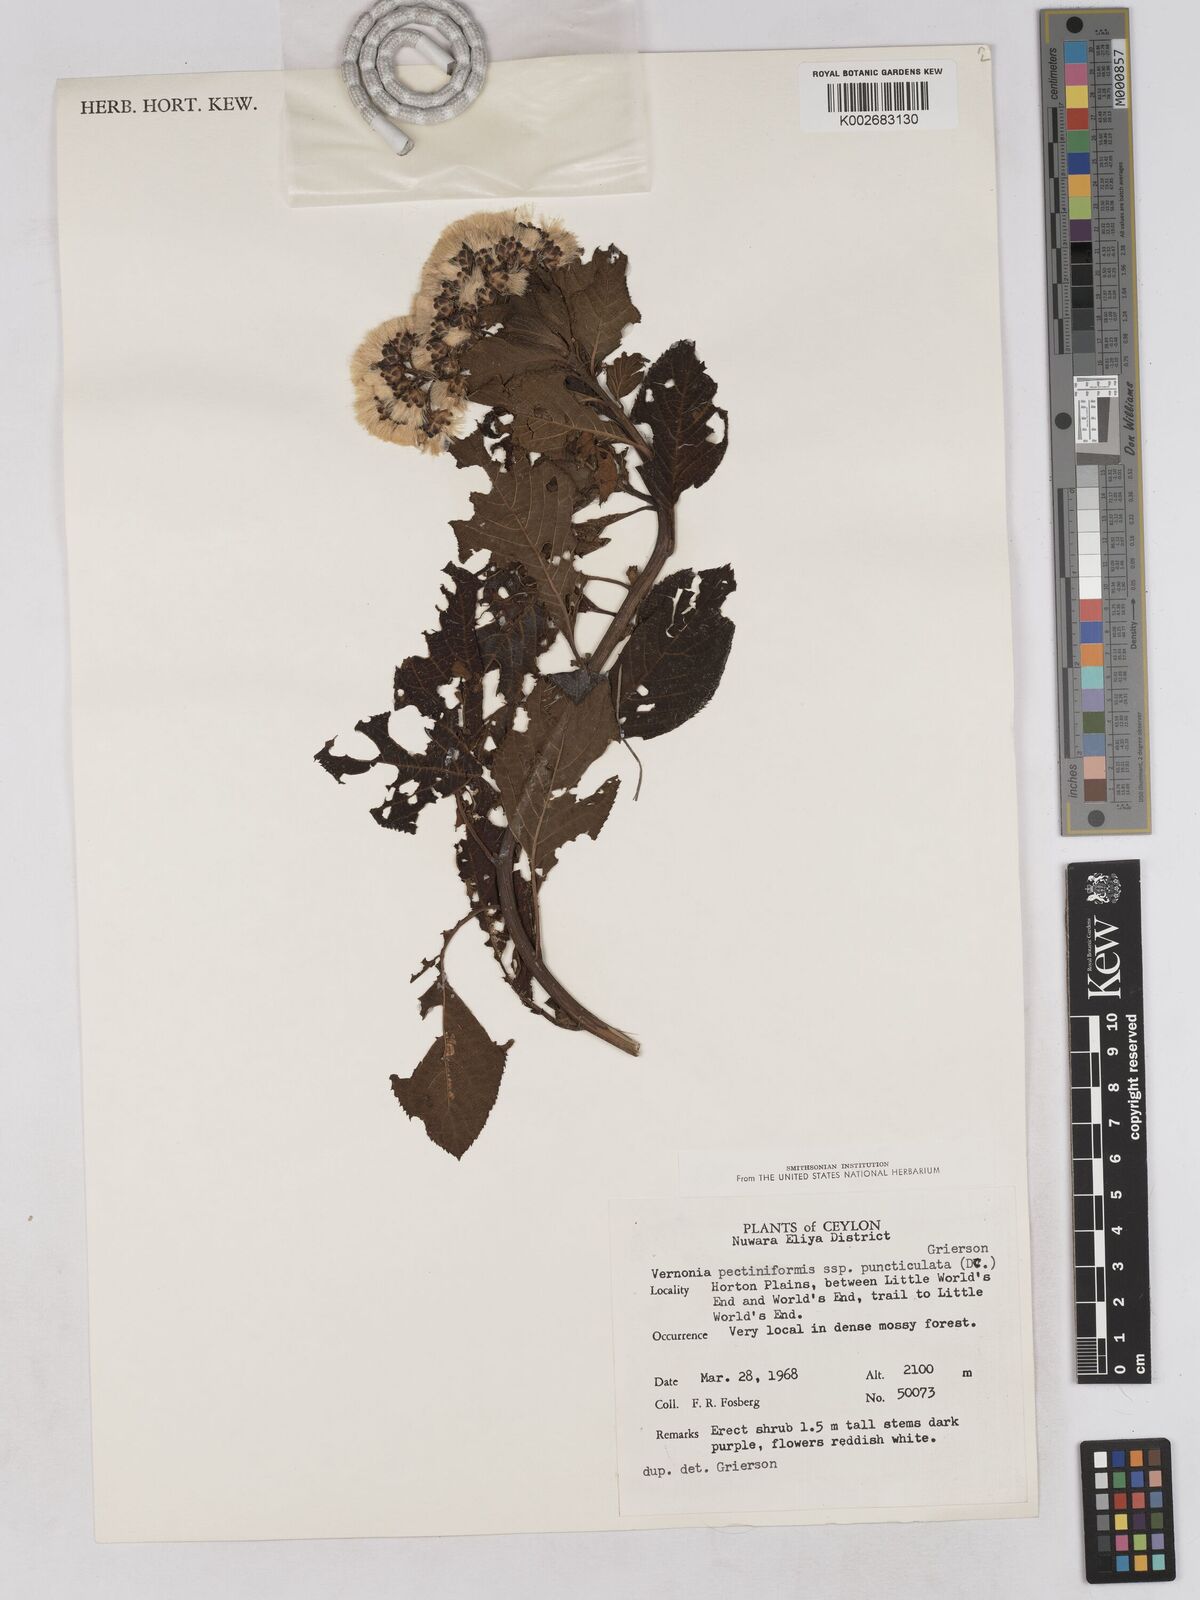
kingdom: Plantae
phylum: Tracheophyta
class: Magnoliopsida
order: Asterales
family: Asteraceae
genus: Gymnanthemum
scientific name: Gymnanthemum pectiniforme
